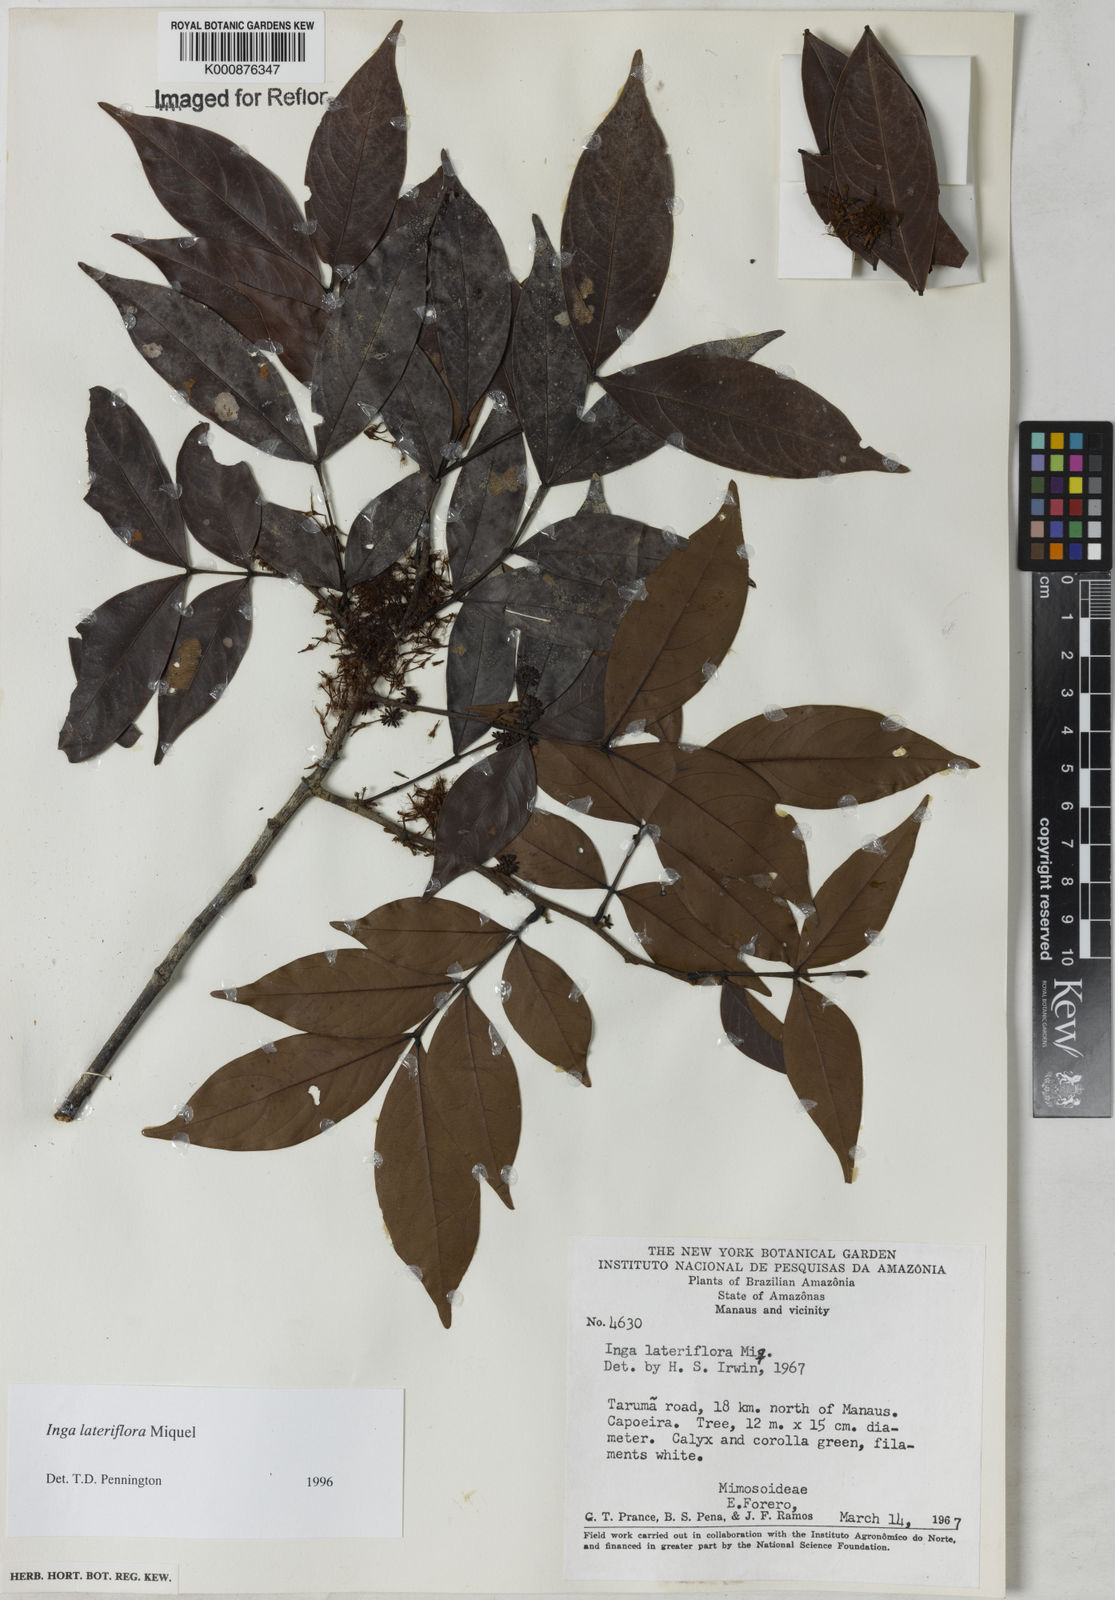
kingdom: Plantae
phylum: Tracheophyta
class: Magnoliopsida
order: Fabales
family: Fabaceae
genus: Inga
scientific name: Inga lateriflora
